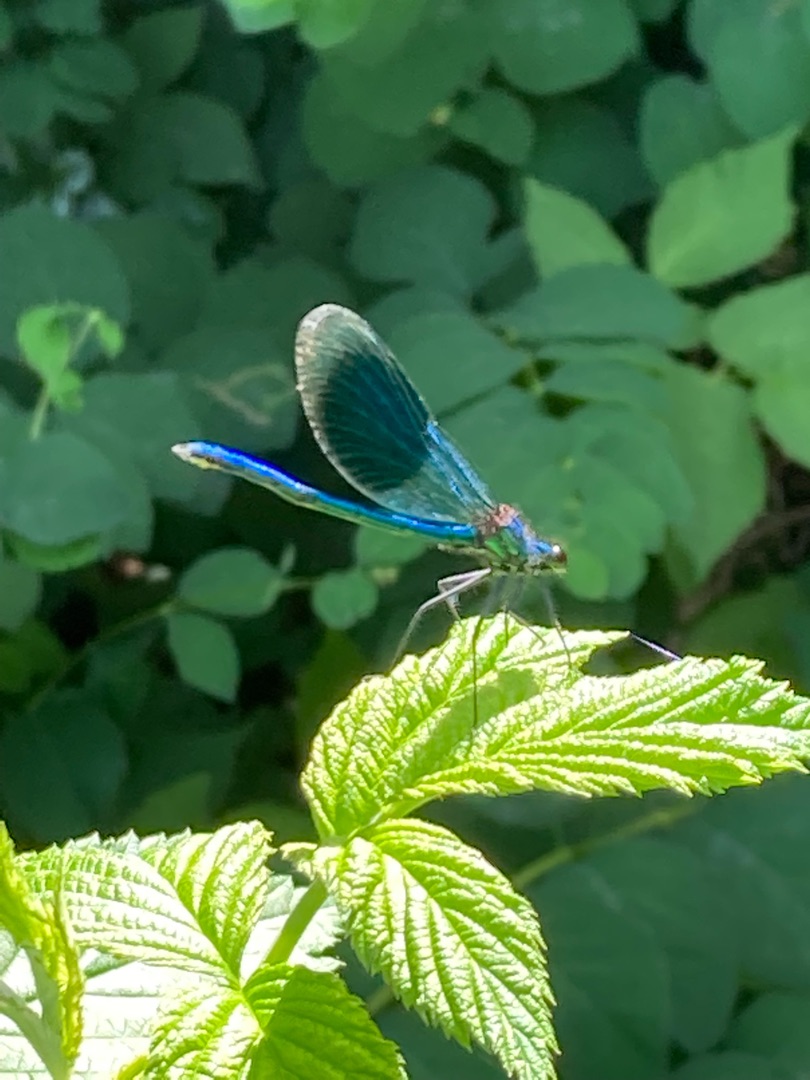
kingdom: Animalia
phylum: Arthropoda
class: Insecta
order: Odonata
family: Calopterygidae
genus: Calopteryx
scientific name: Calopteryx splendens
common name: Blåbåndet pragtvandnymfe
